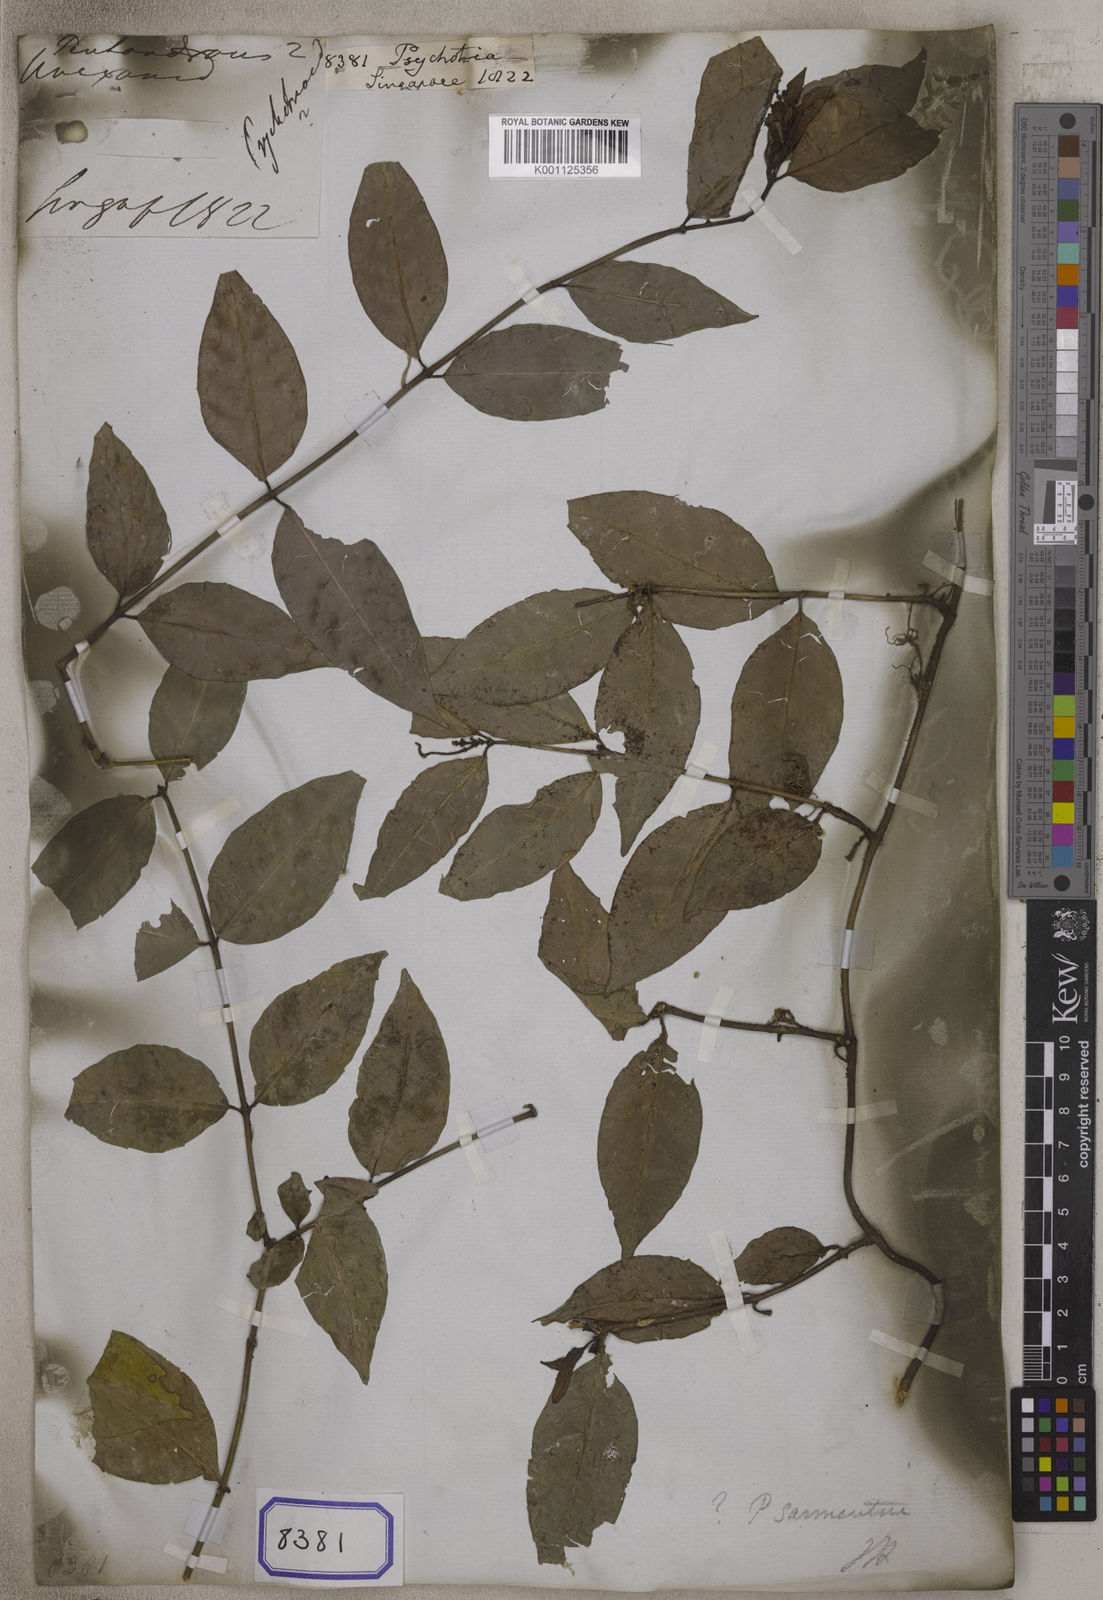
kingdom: Plantae
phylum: Tracheophyta
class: Magnoliopsida
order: Gentianales
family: Rubiaceae
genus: Psychotria
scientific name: Psychotria
